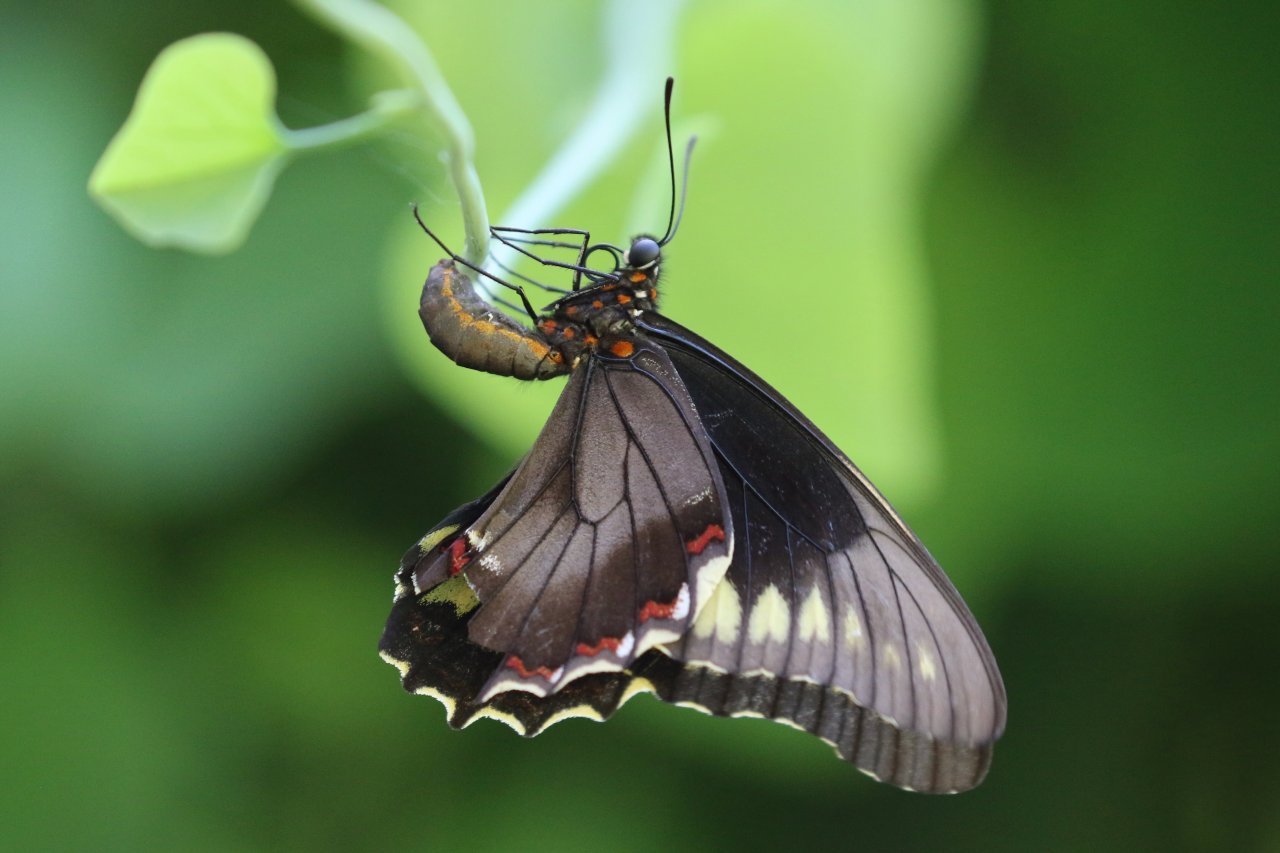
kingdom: Animalia
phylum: Arthropoda
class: Insecta
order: Lepidoptera
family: Papilionidae
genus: Battus
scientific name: Battus polydamas
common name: Polydamas Swallowtail
